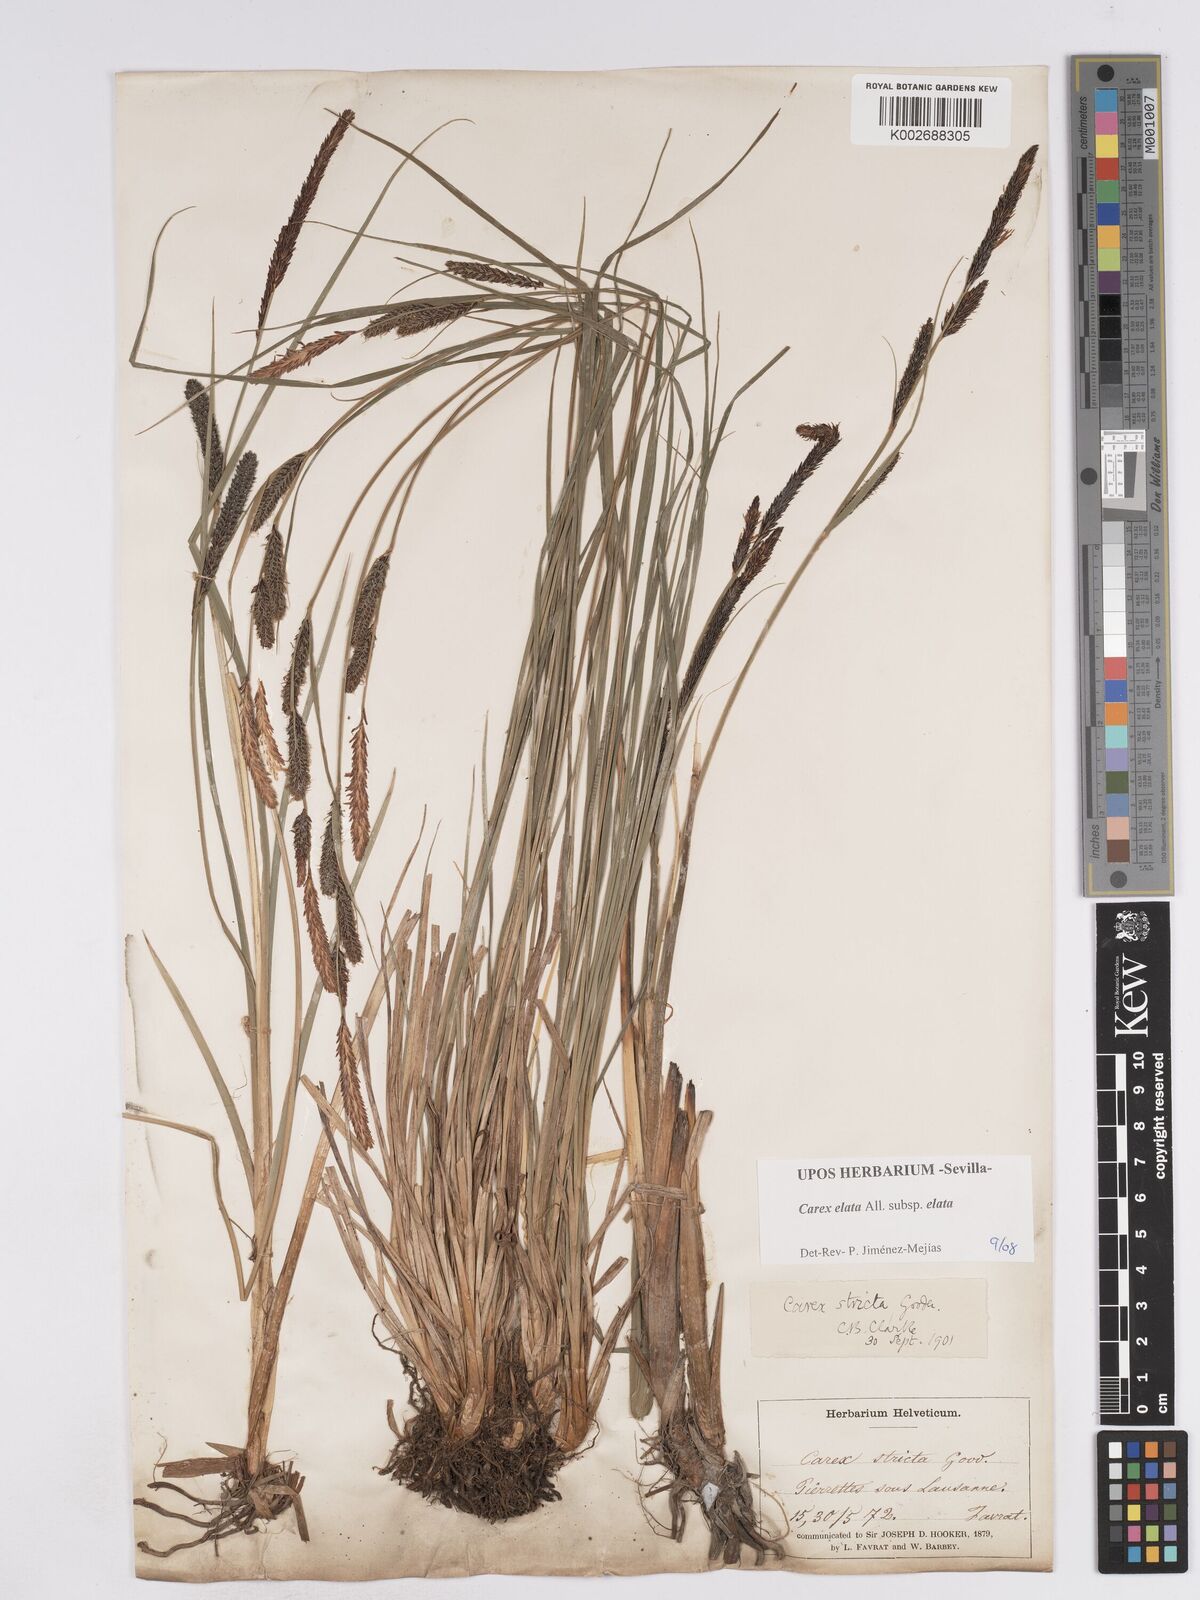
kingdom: Plantae
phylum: Tracheophyta
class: Liliopsida
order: Poales
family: Cyperaceae
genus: Carex
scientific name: Carex elata
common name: Tufted sedge
